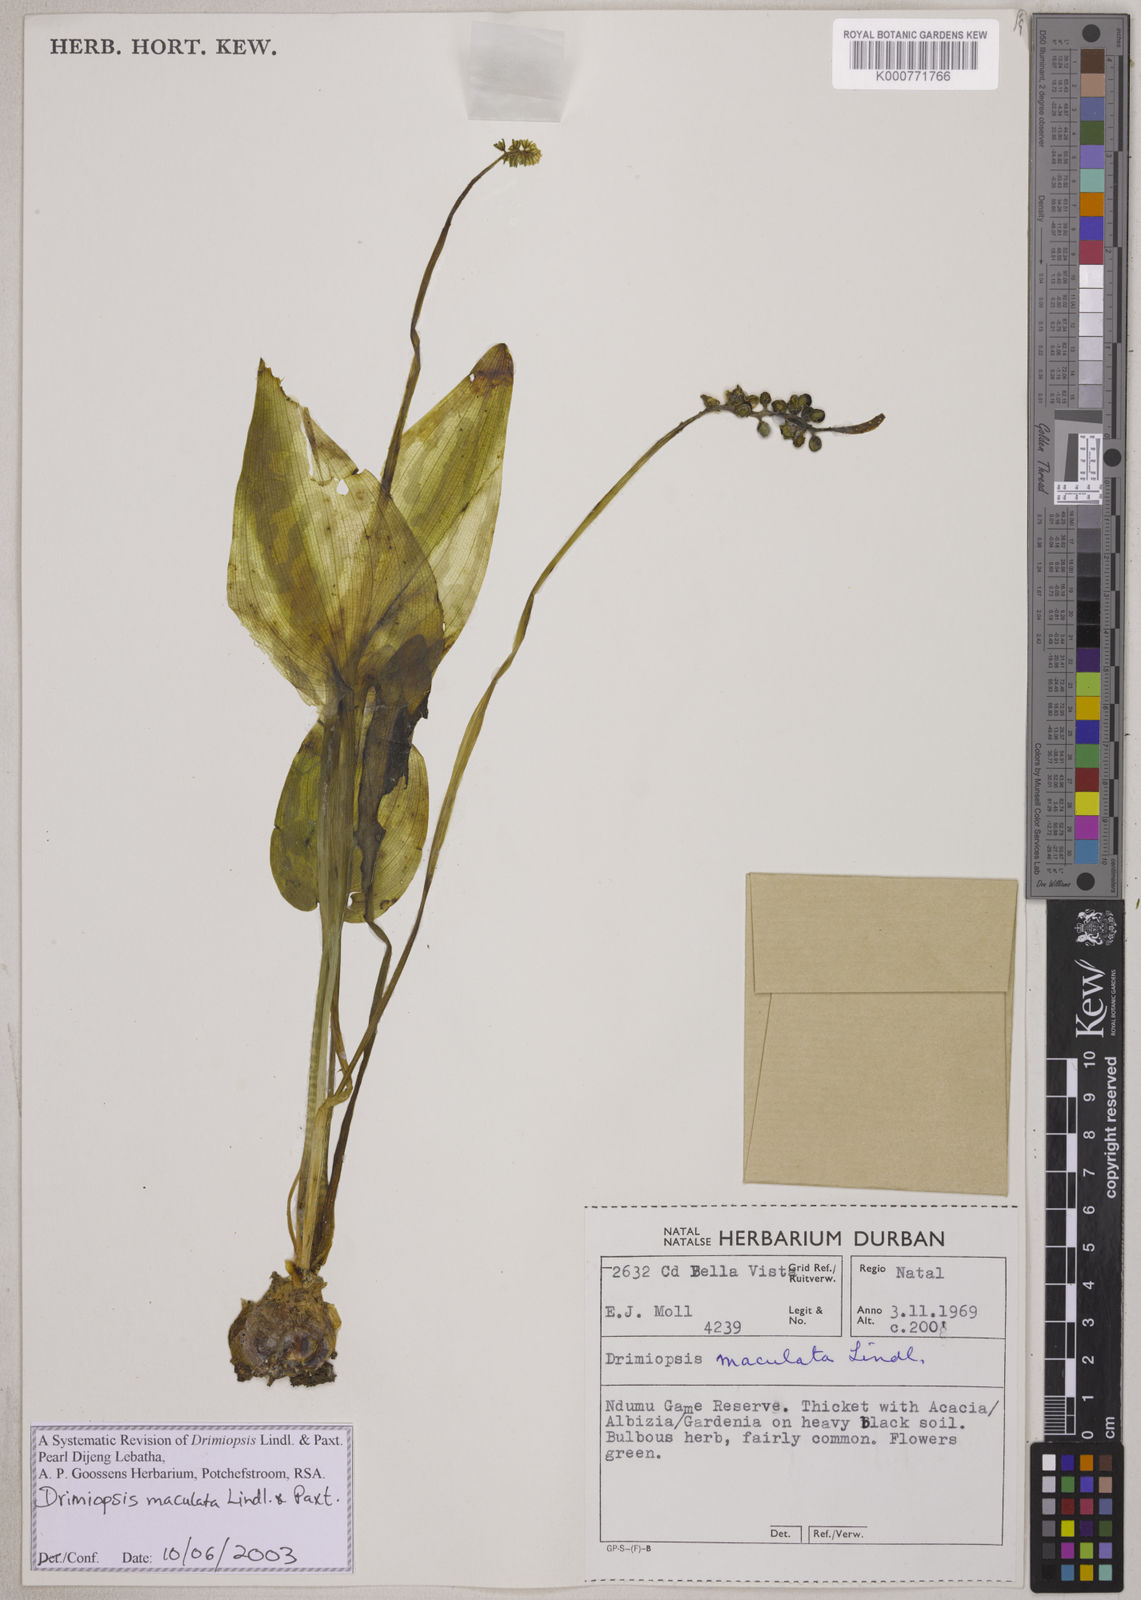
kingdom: Plantae
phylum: Tracheophyta
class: Liliopsida
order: Asparagales
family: Asparagaceae
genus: Drimiopsis
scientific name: Drimiopsis maculata
